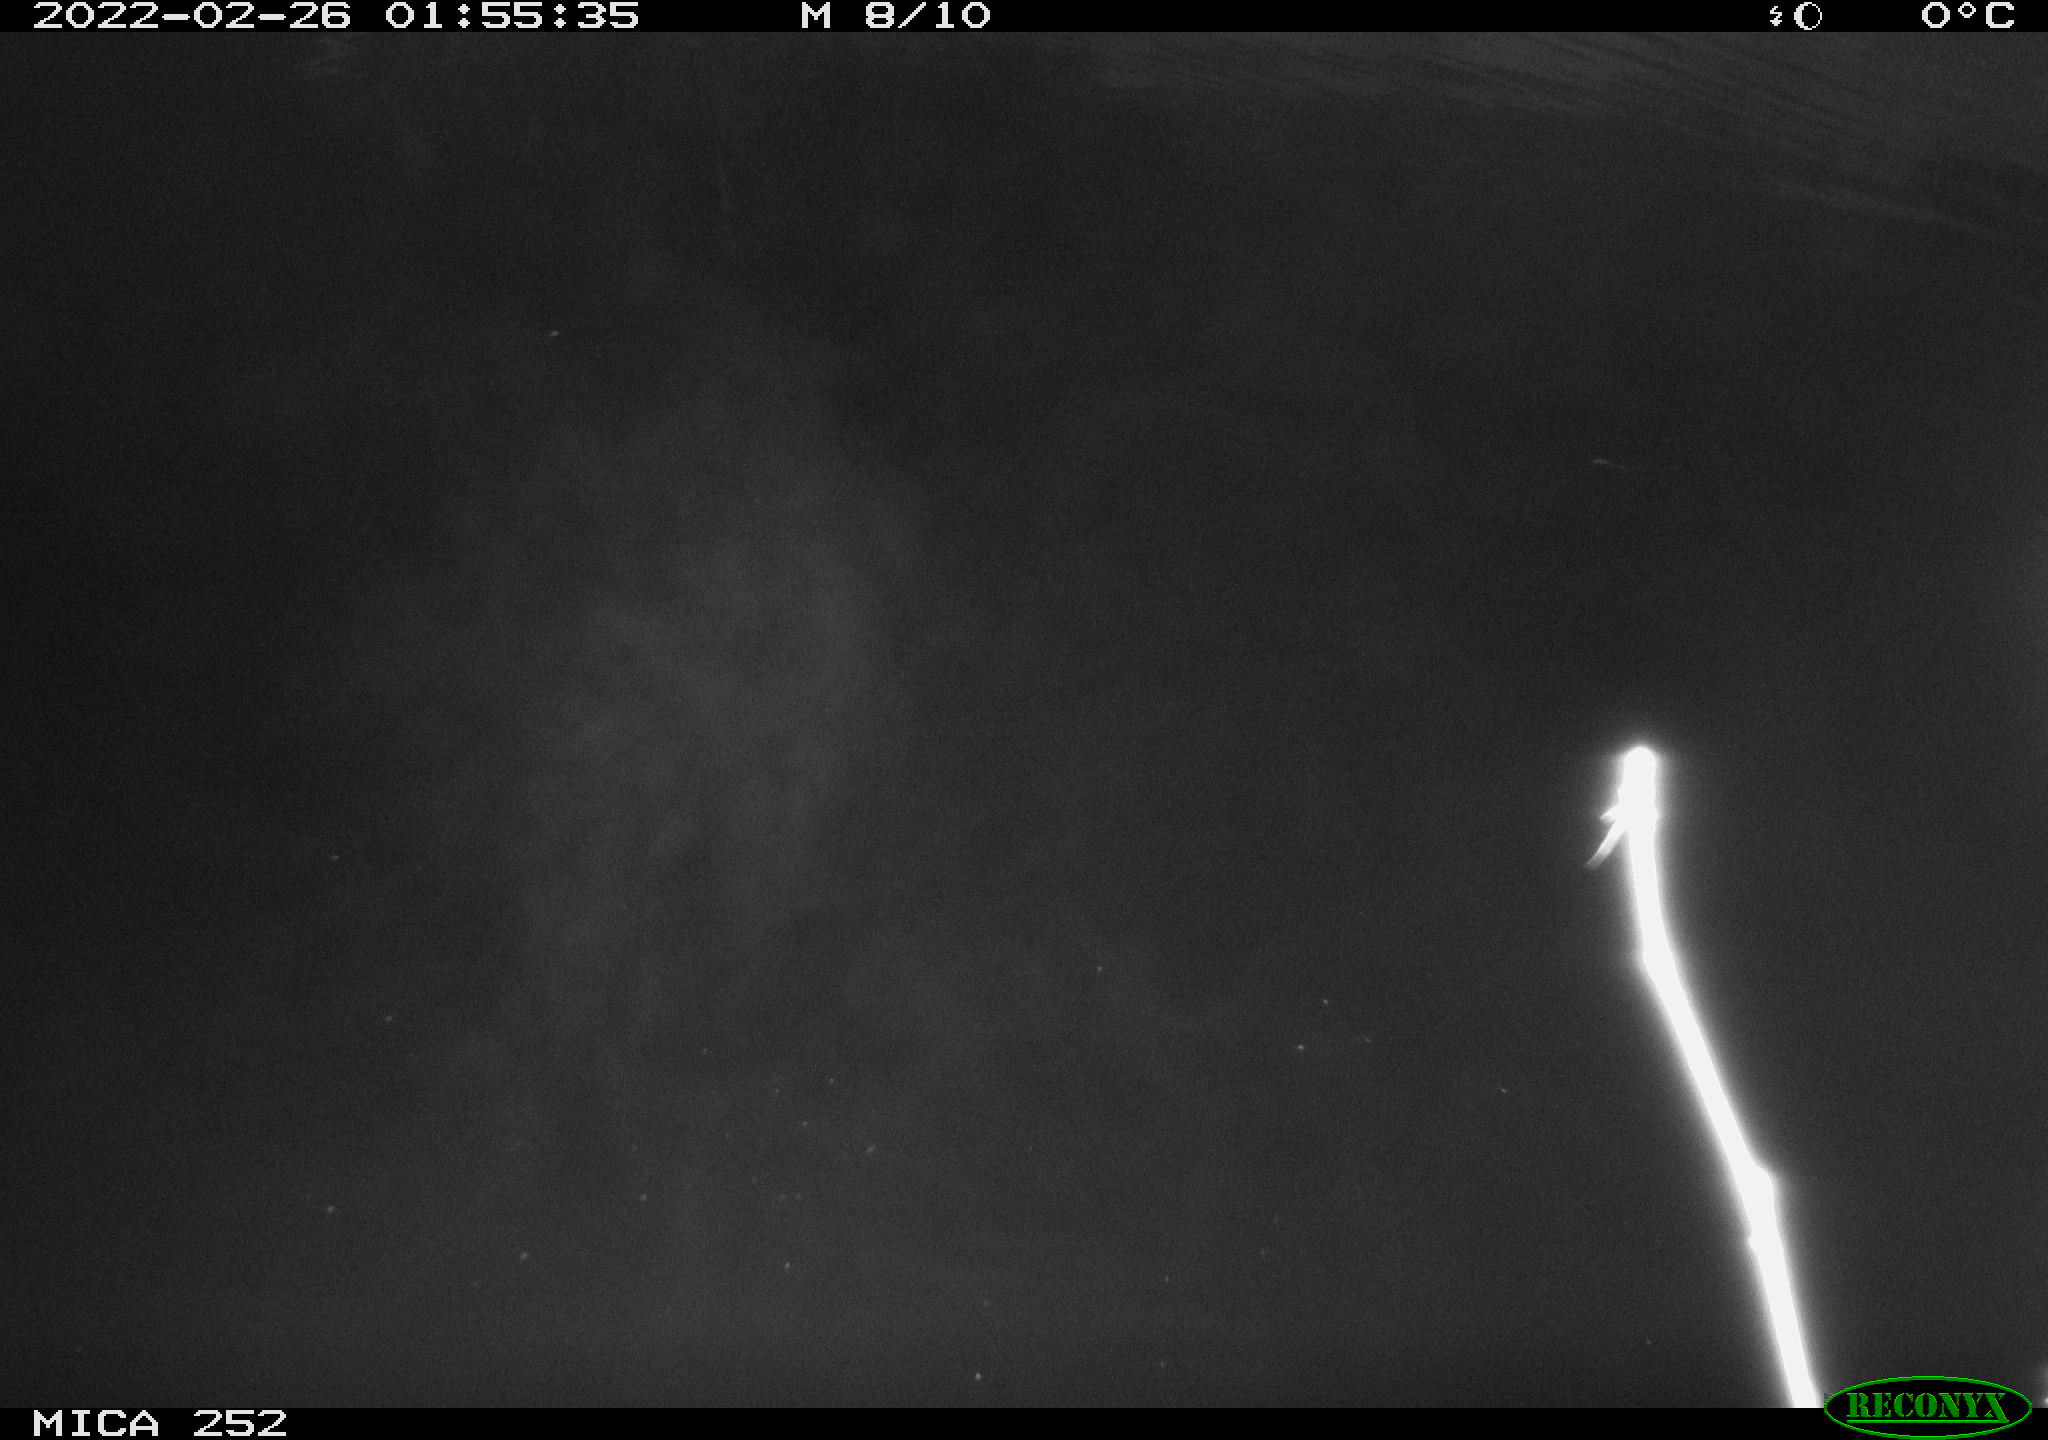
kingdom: Animalia
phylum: Chordata
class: Mammalia
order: Rodentia
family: Castoridae
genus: Castor
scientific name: Castor fiber
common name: Eurasian beaver
